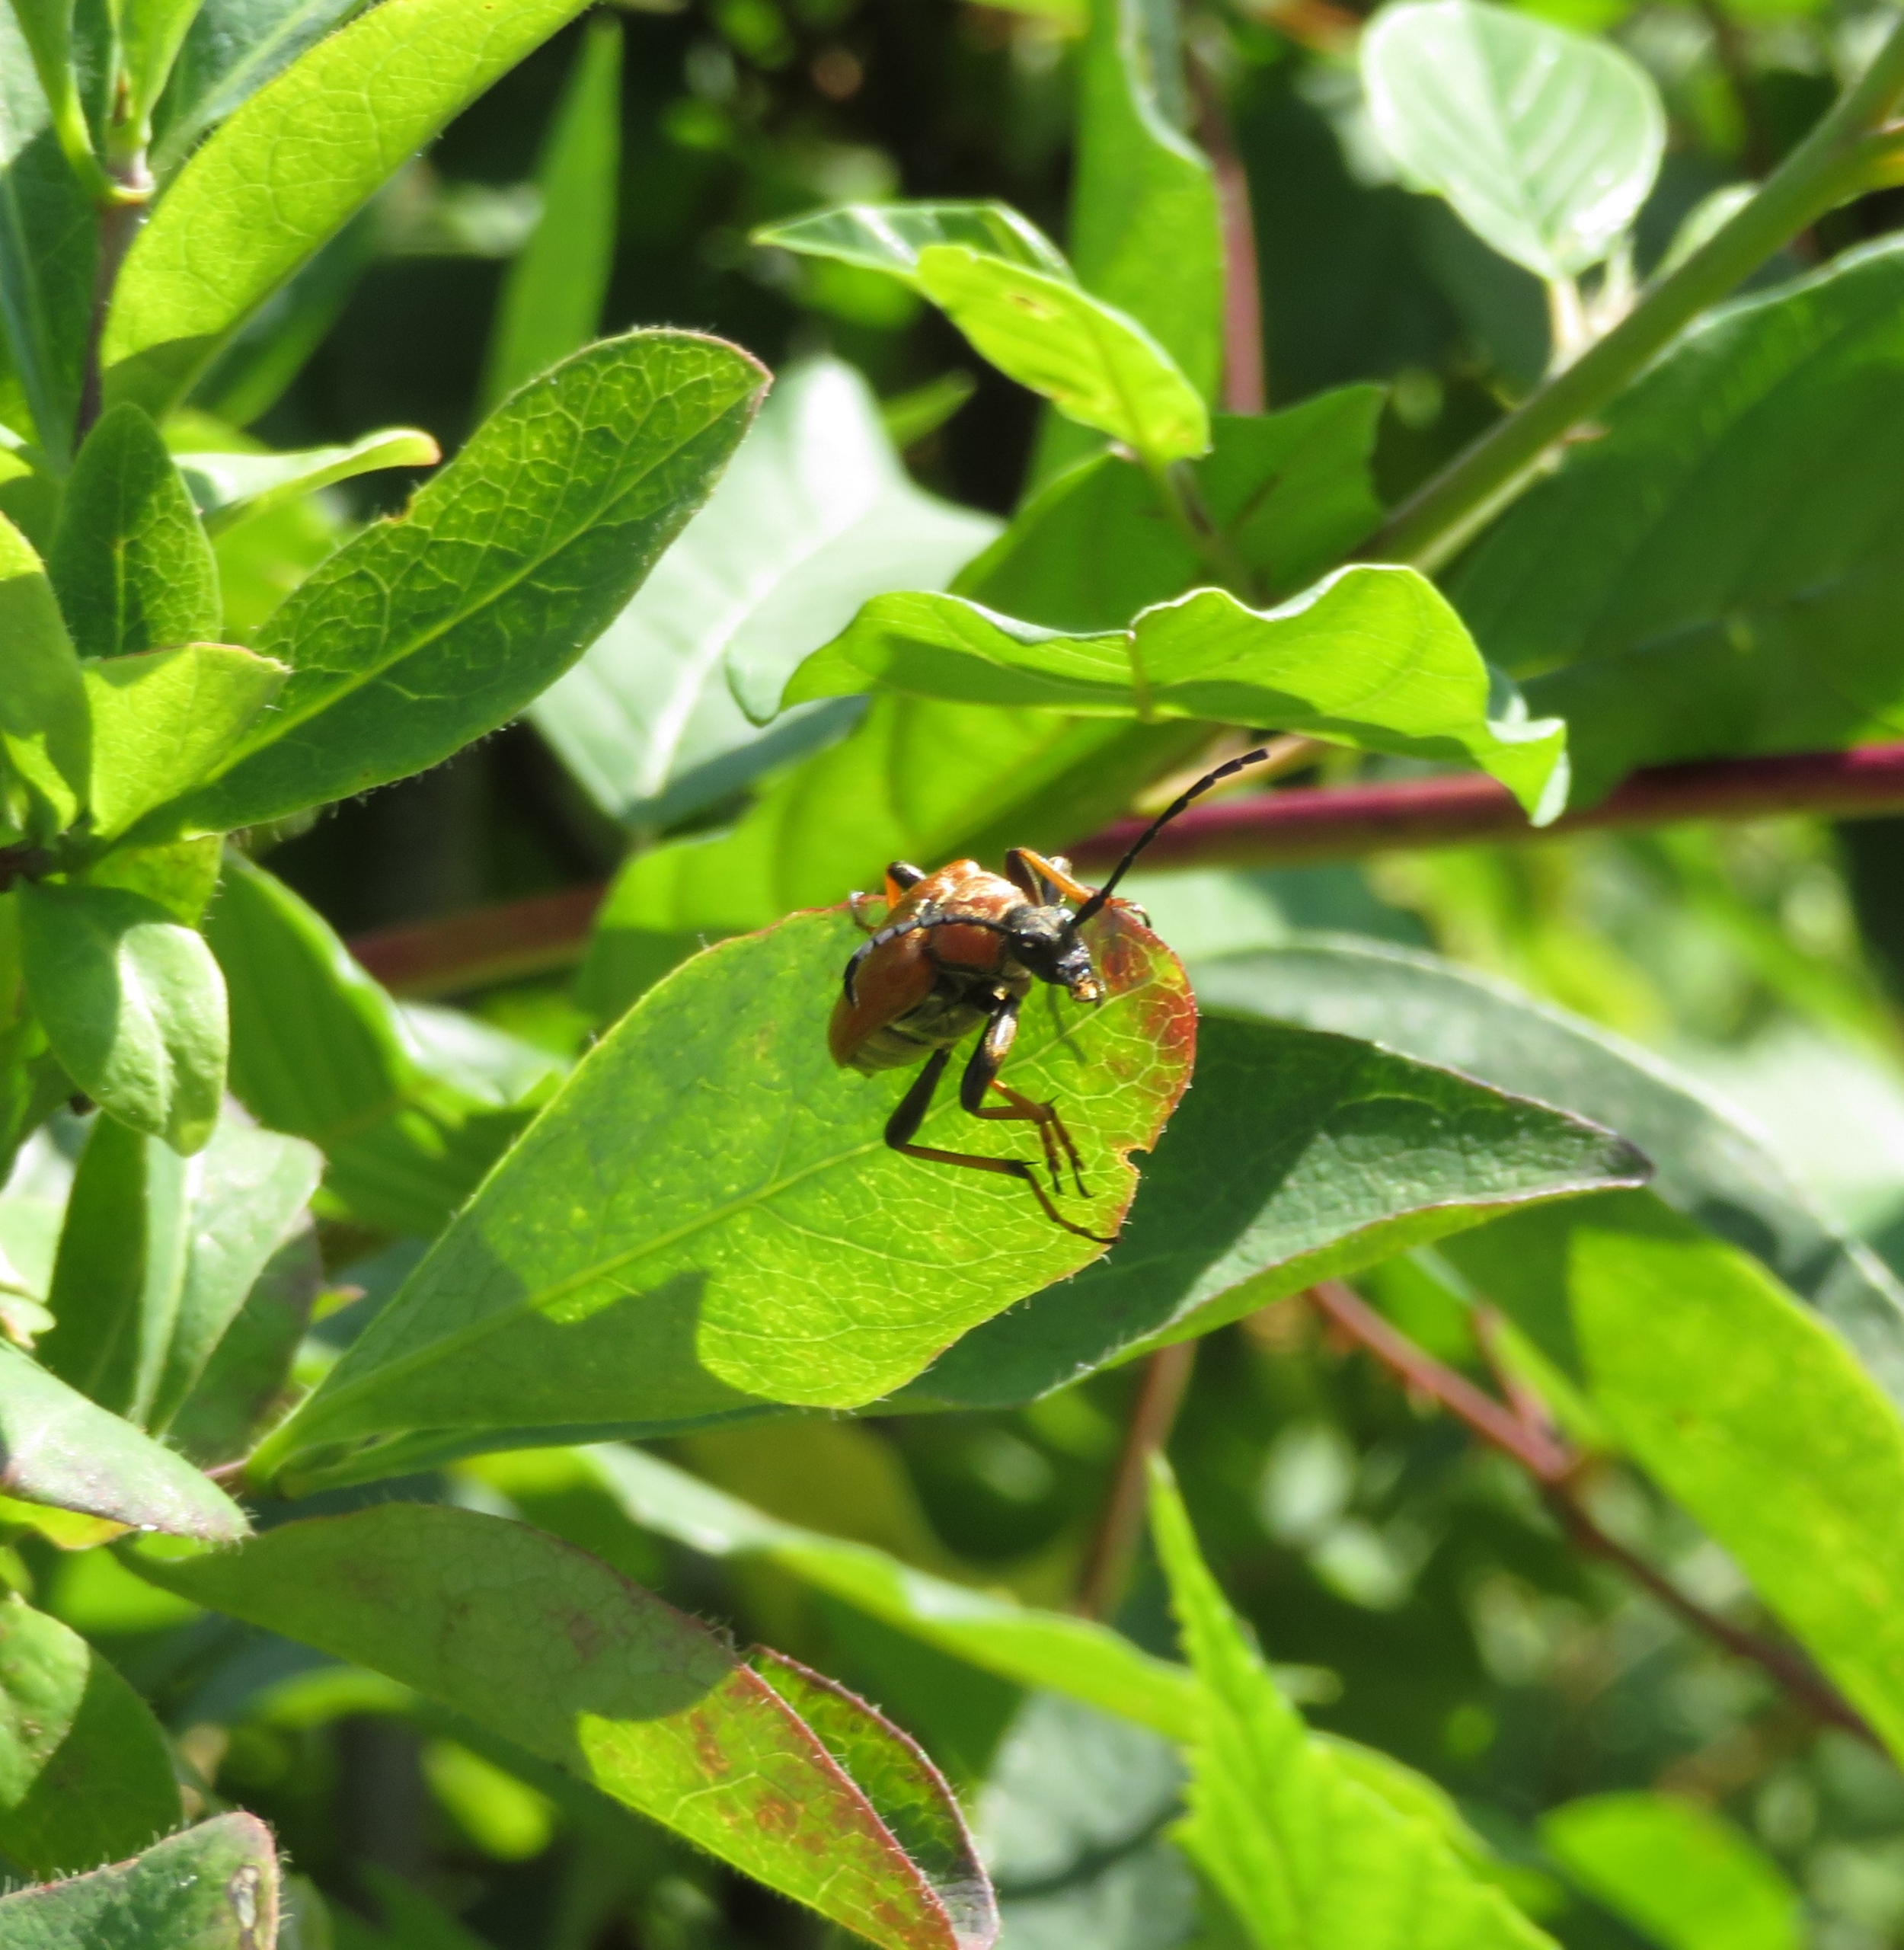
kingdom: Animalia
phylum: Arthropoda
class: Insecta
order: Coleoptera
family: Cerambycidae
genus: Stictoleptura
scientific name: Stictoleptura rubra
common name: Rød blomsterbuk
